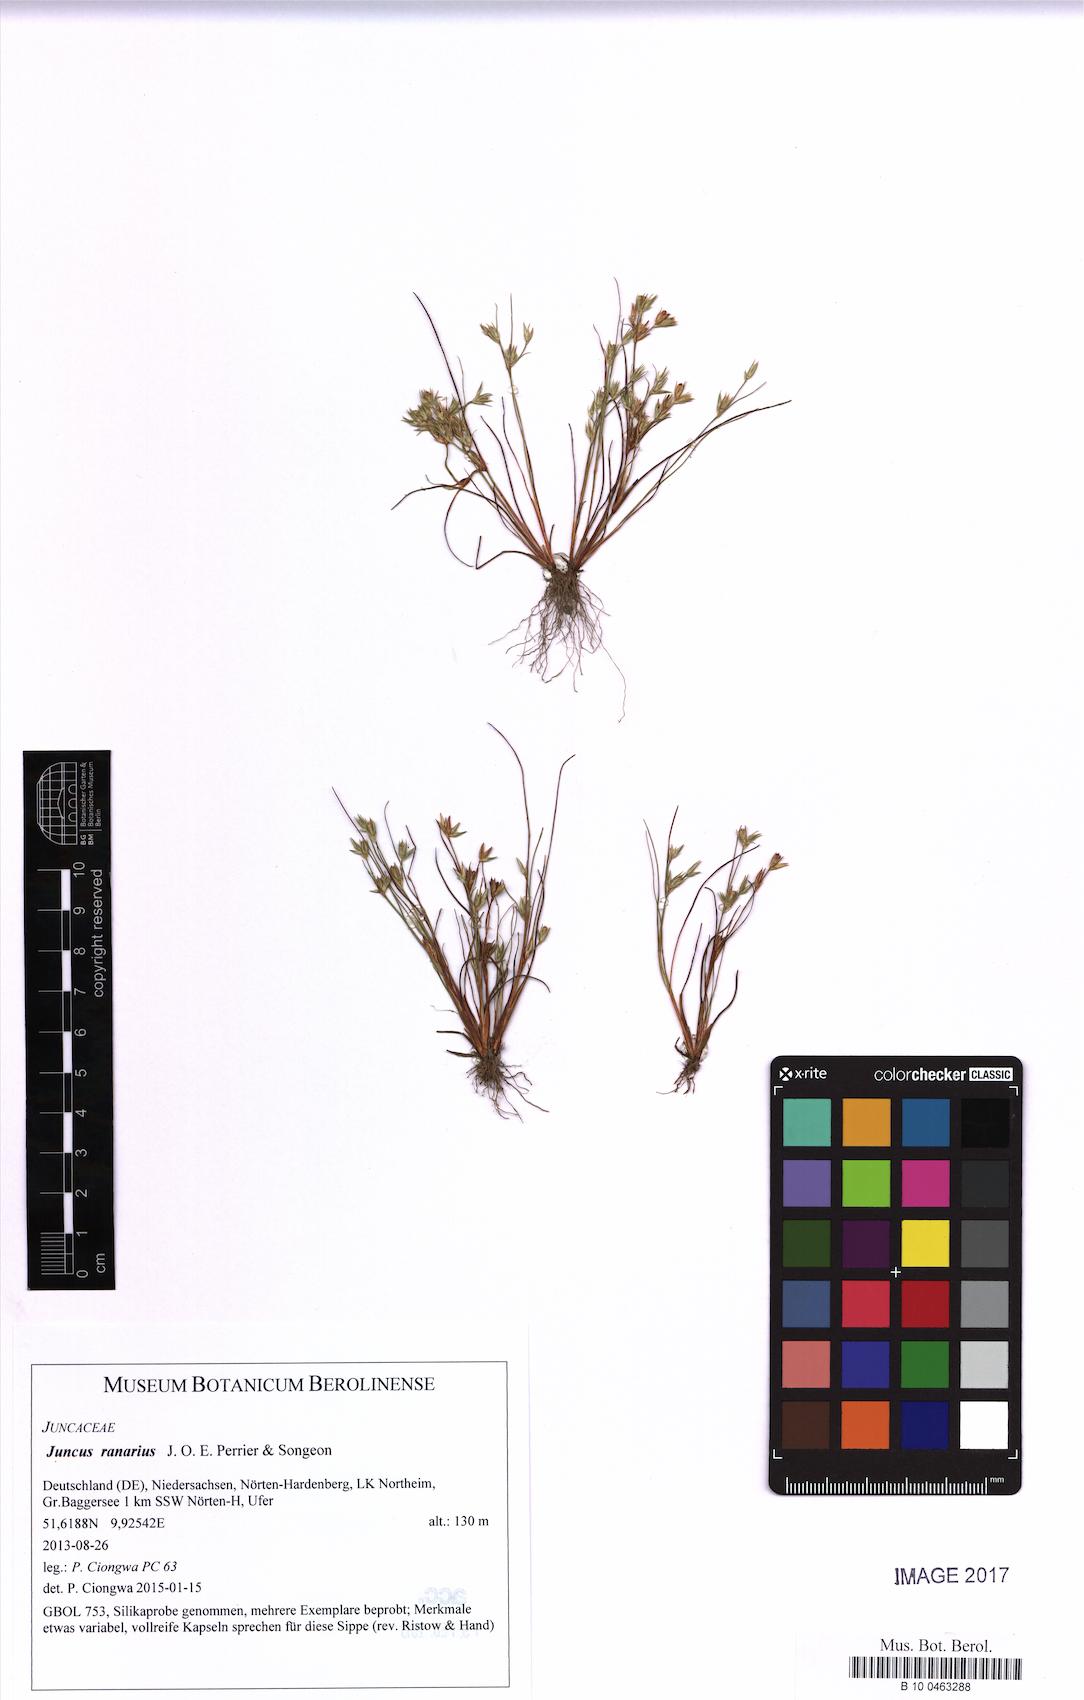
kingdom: Plantae
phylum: Tracheophyta
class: Liliopsida
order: Poales
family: Juncaceae
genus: Juncus
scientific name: Juncus ranarius
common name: Frog rush
